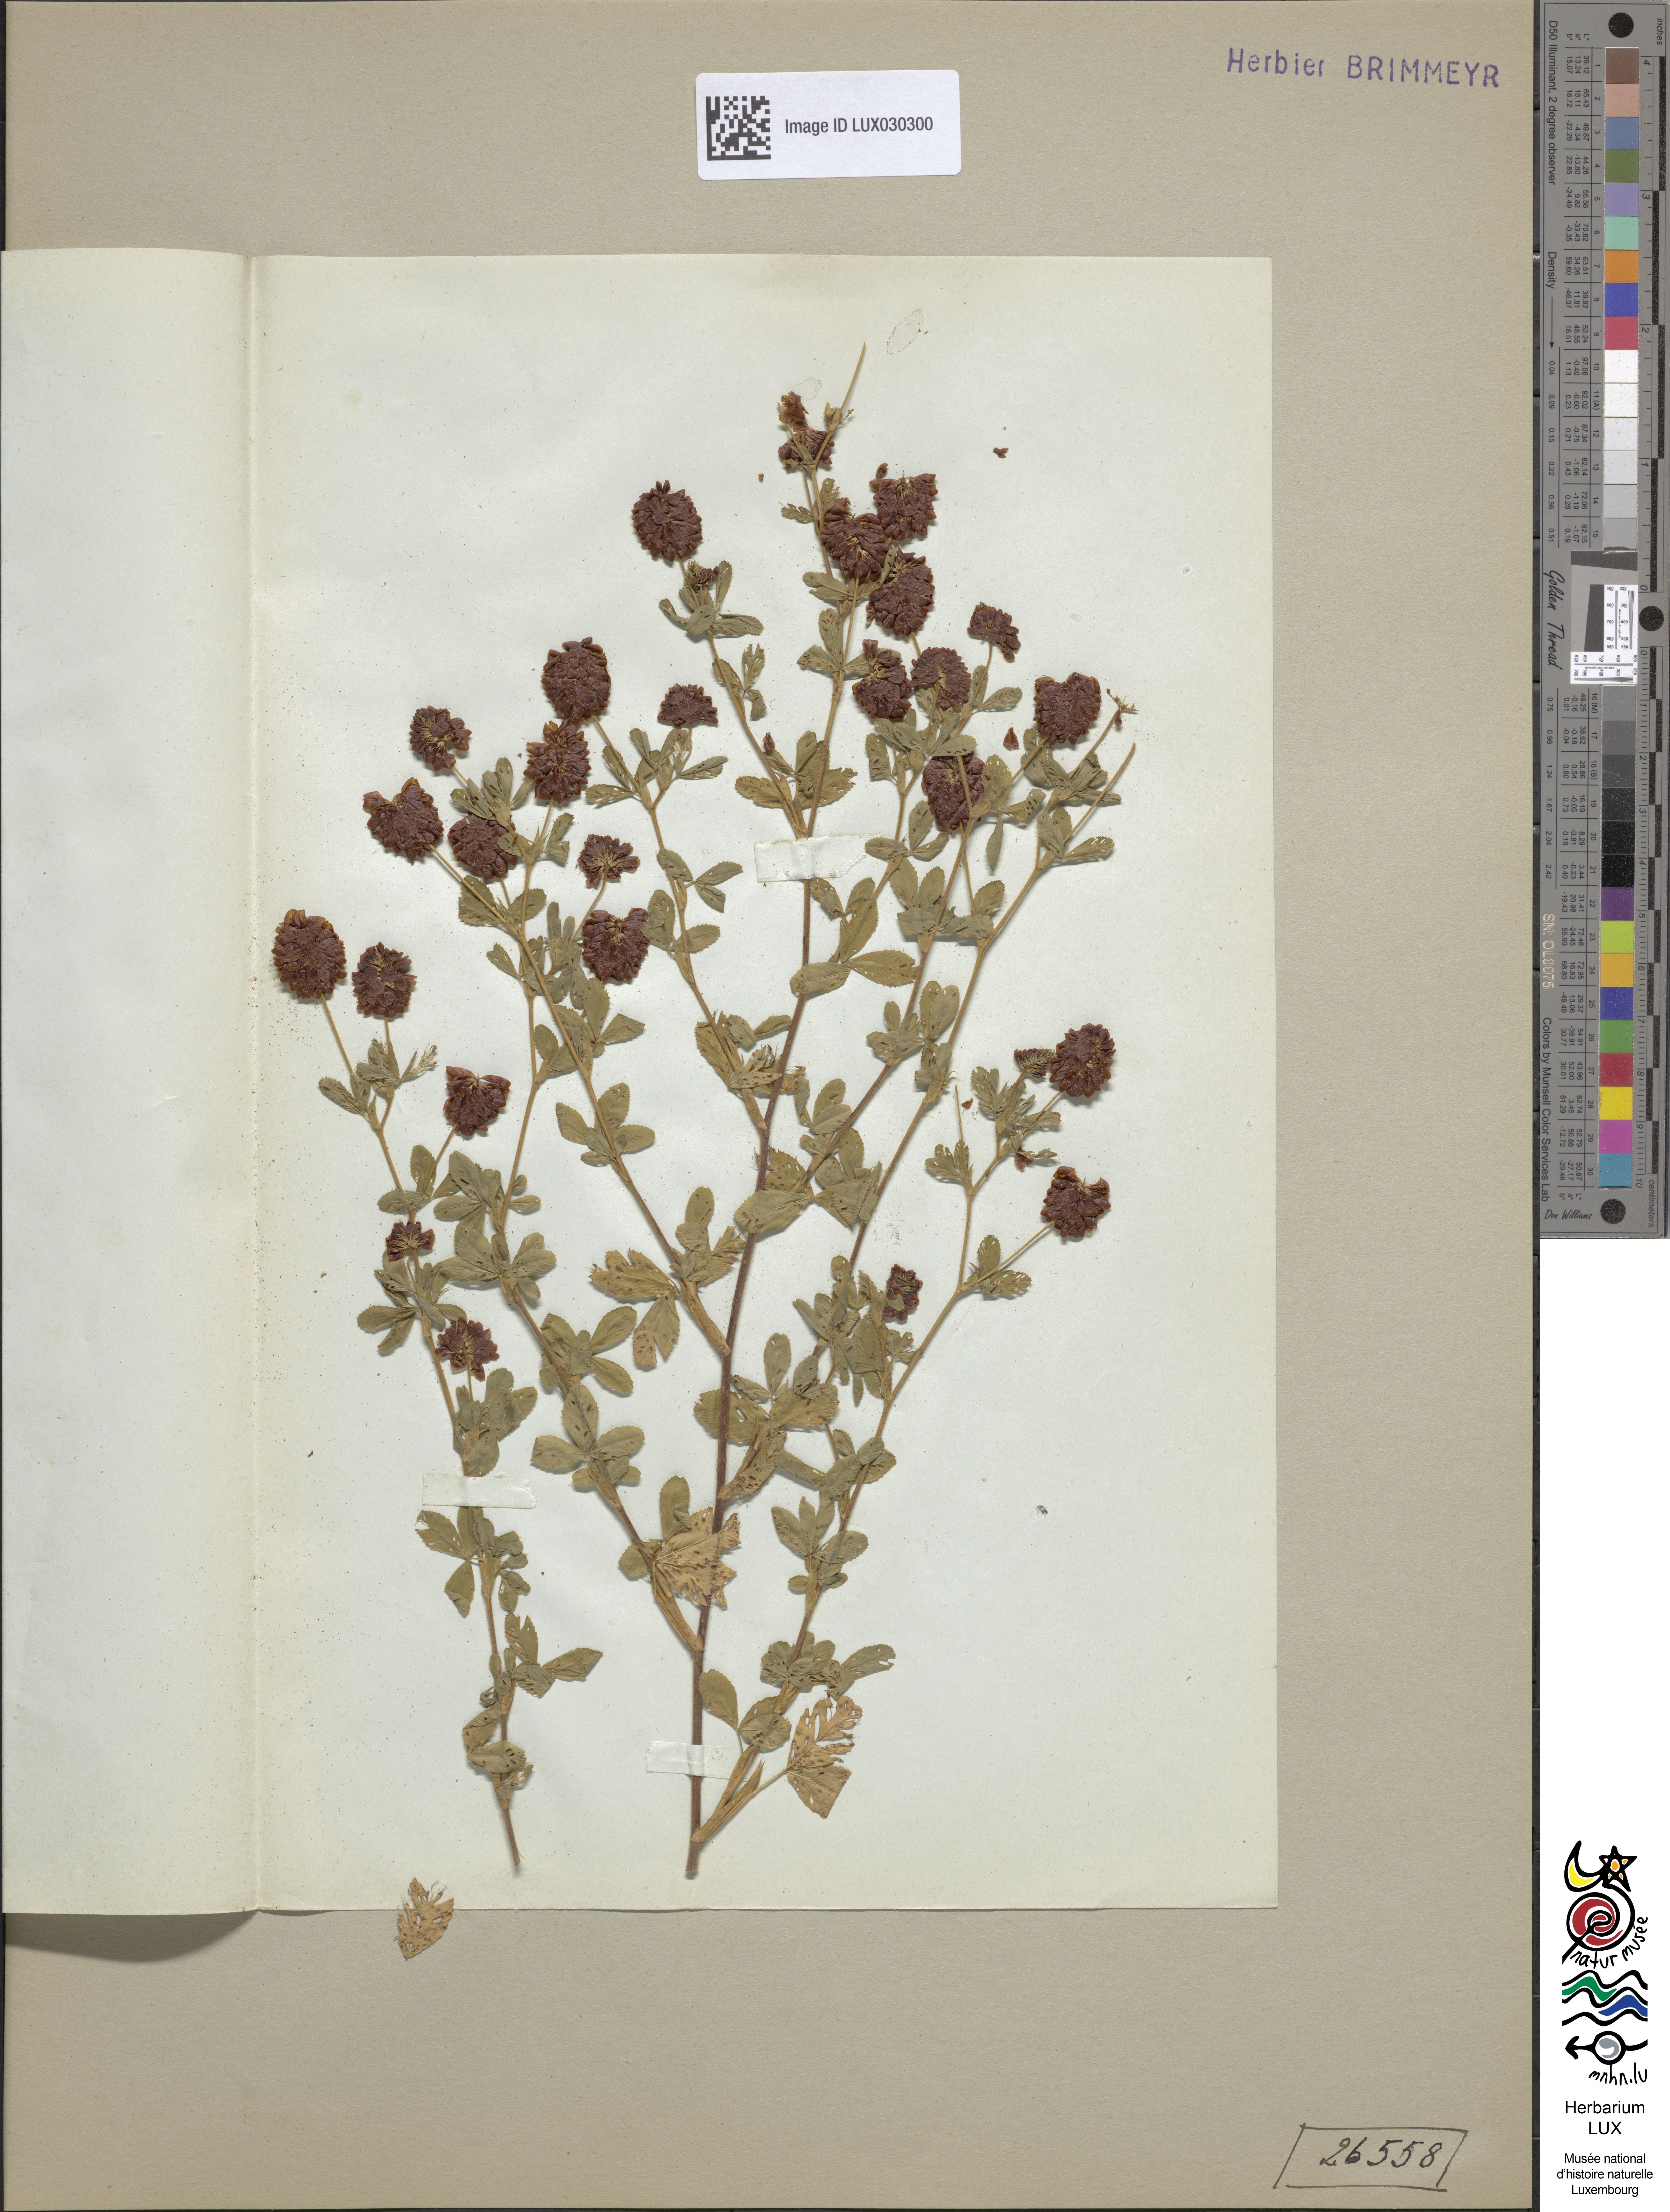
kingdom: Plantae
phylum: Tracheophyta
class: Magnoliopsida
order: Fabales
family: Fabaceae
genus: Trifolium
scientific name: Trifolium aureum
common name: Golden clover
